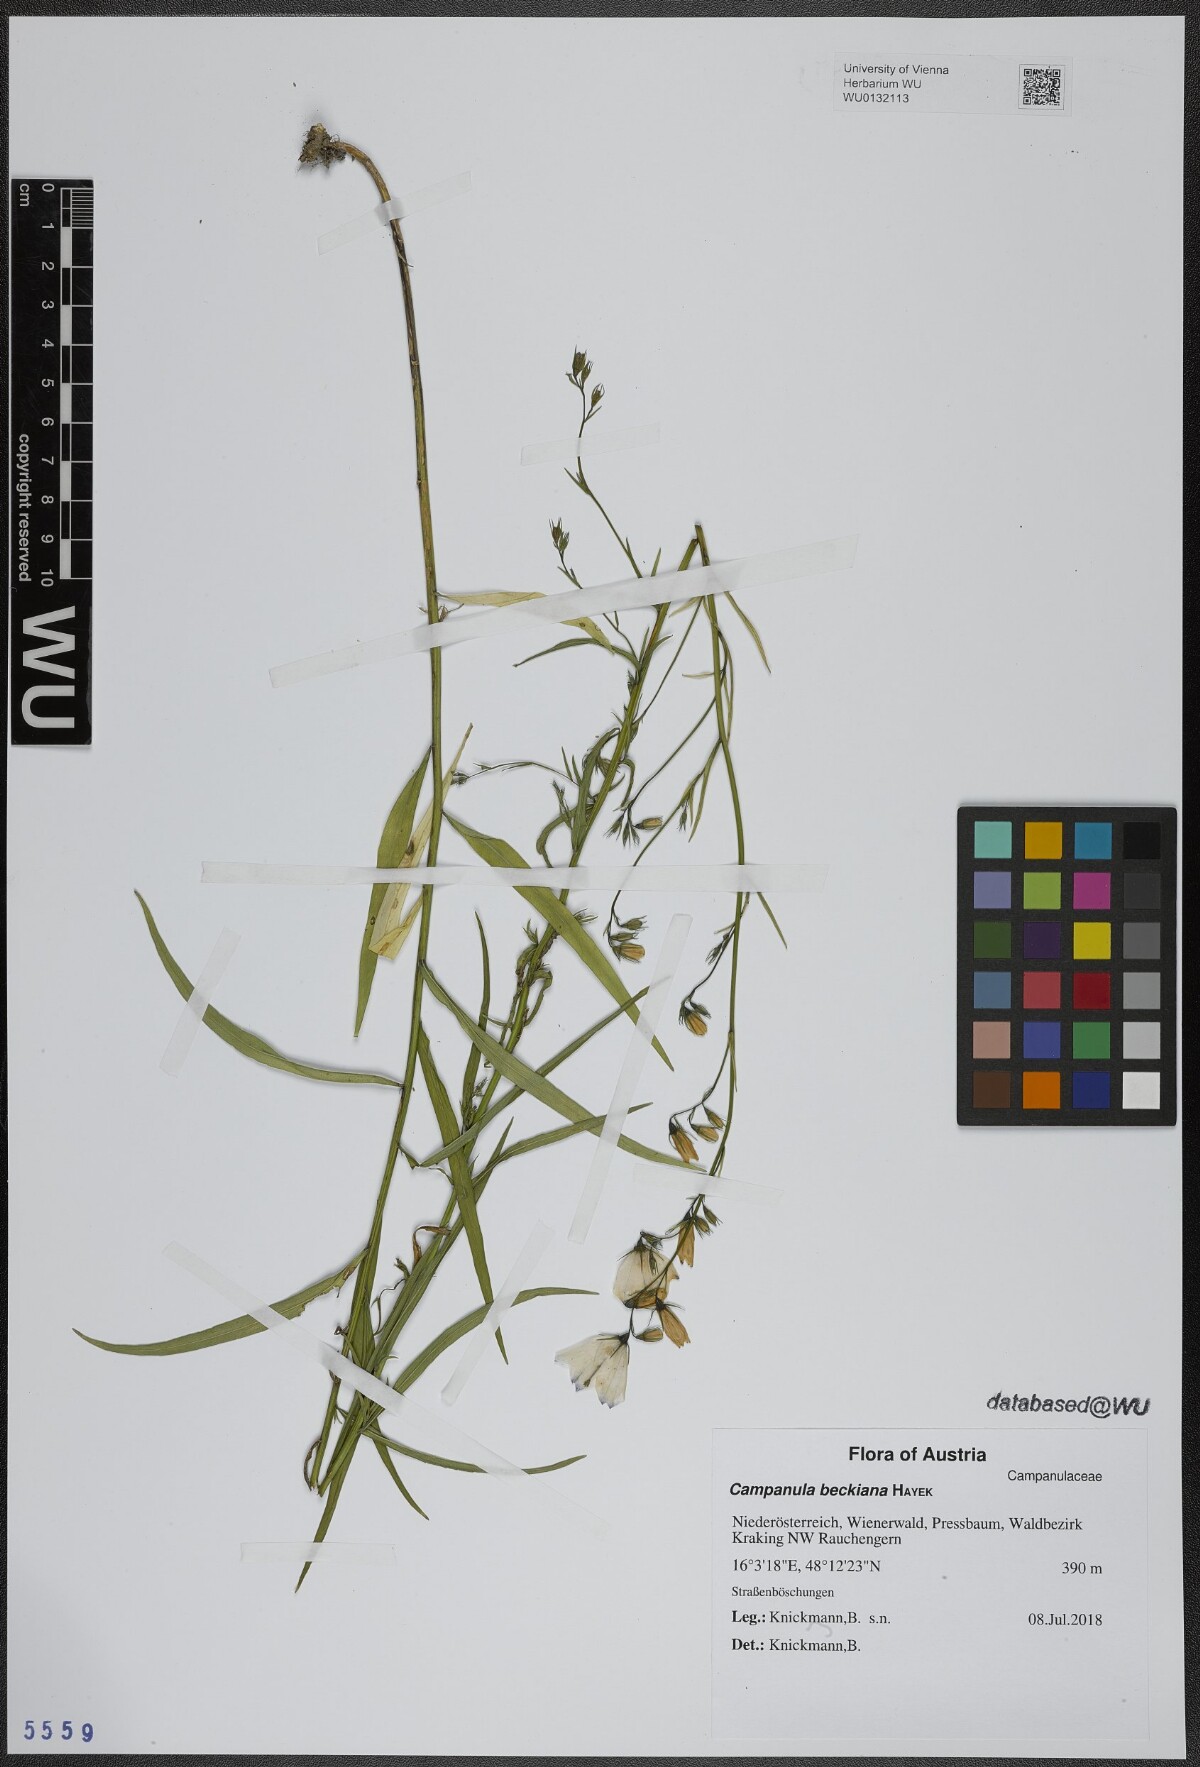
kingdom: Plantae
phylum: Tracheophyta
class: Magnoliopsida
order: Asterales
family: Campanulaceae
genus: Campanula
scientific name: Campanula baumgartenii
